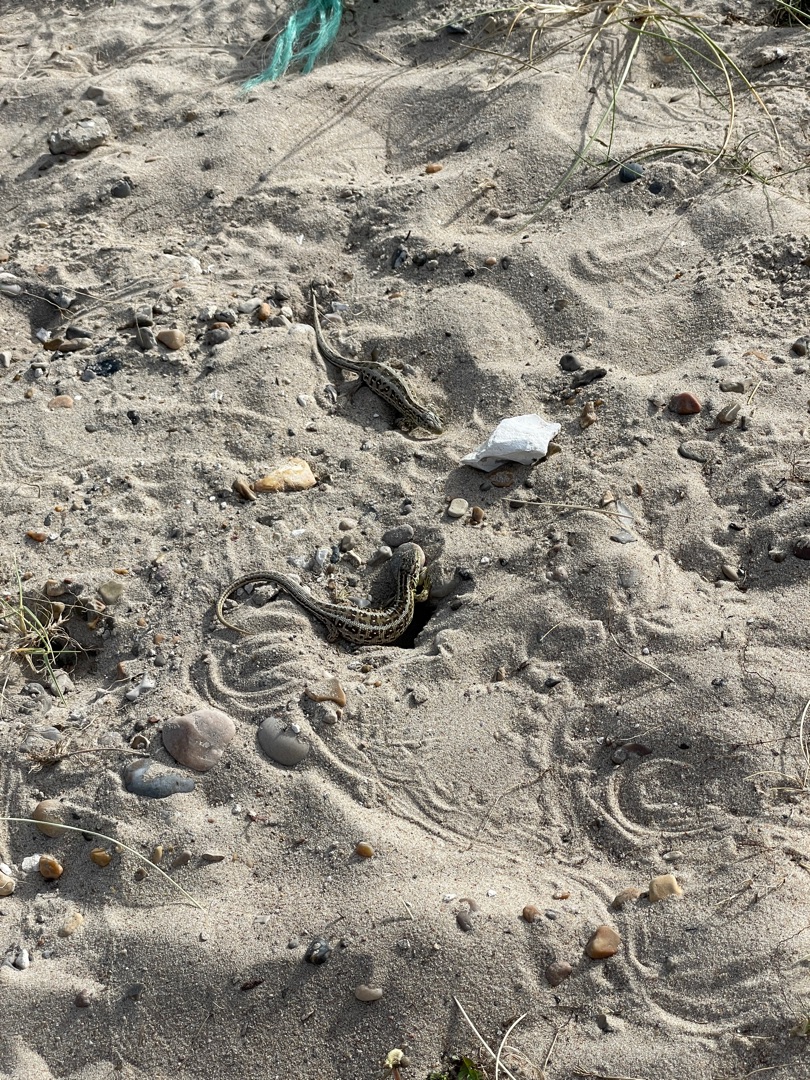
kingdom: Animalia
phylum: Chordata
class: Squamata
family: Lacertidae
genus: Lacerta
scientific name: Lacerta agilis
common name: Markfirben
